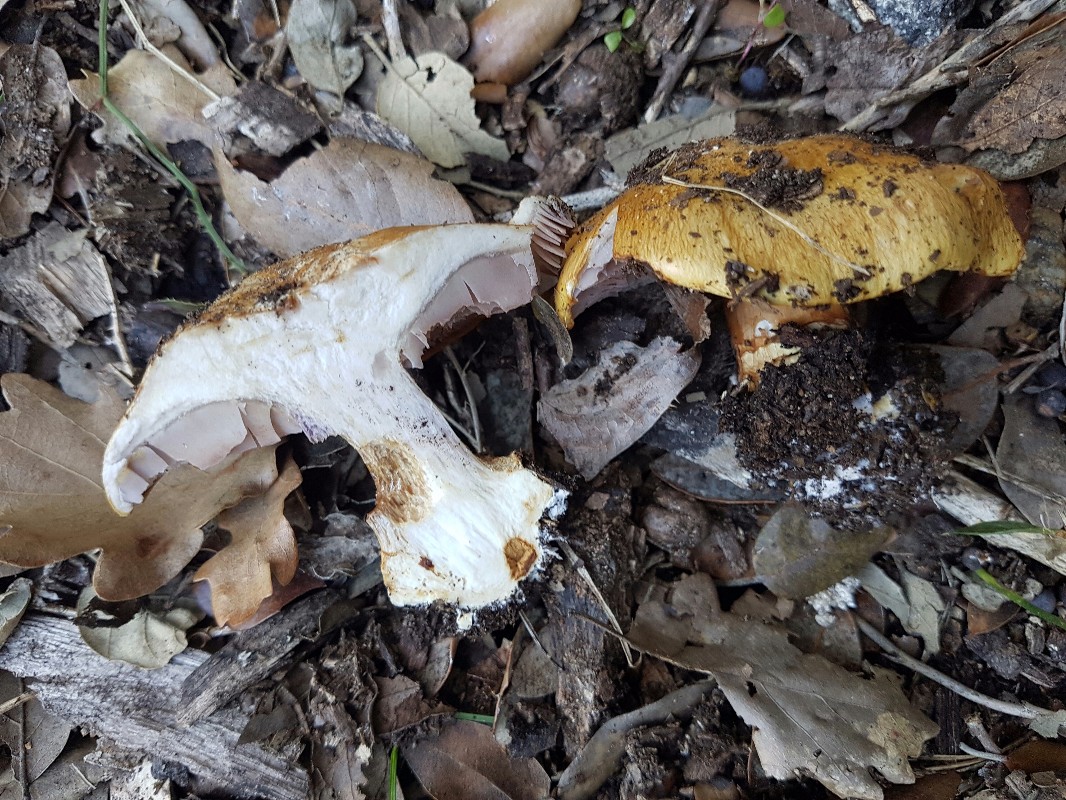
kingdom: Fungi
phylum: Basidiomycota
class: Agaricomycetes
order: Agaricales
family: Cortinariaceae
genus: Calonarius
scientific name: Calonarius cisticola
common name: cistus-slørhat
